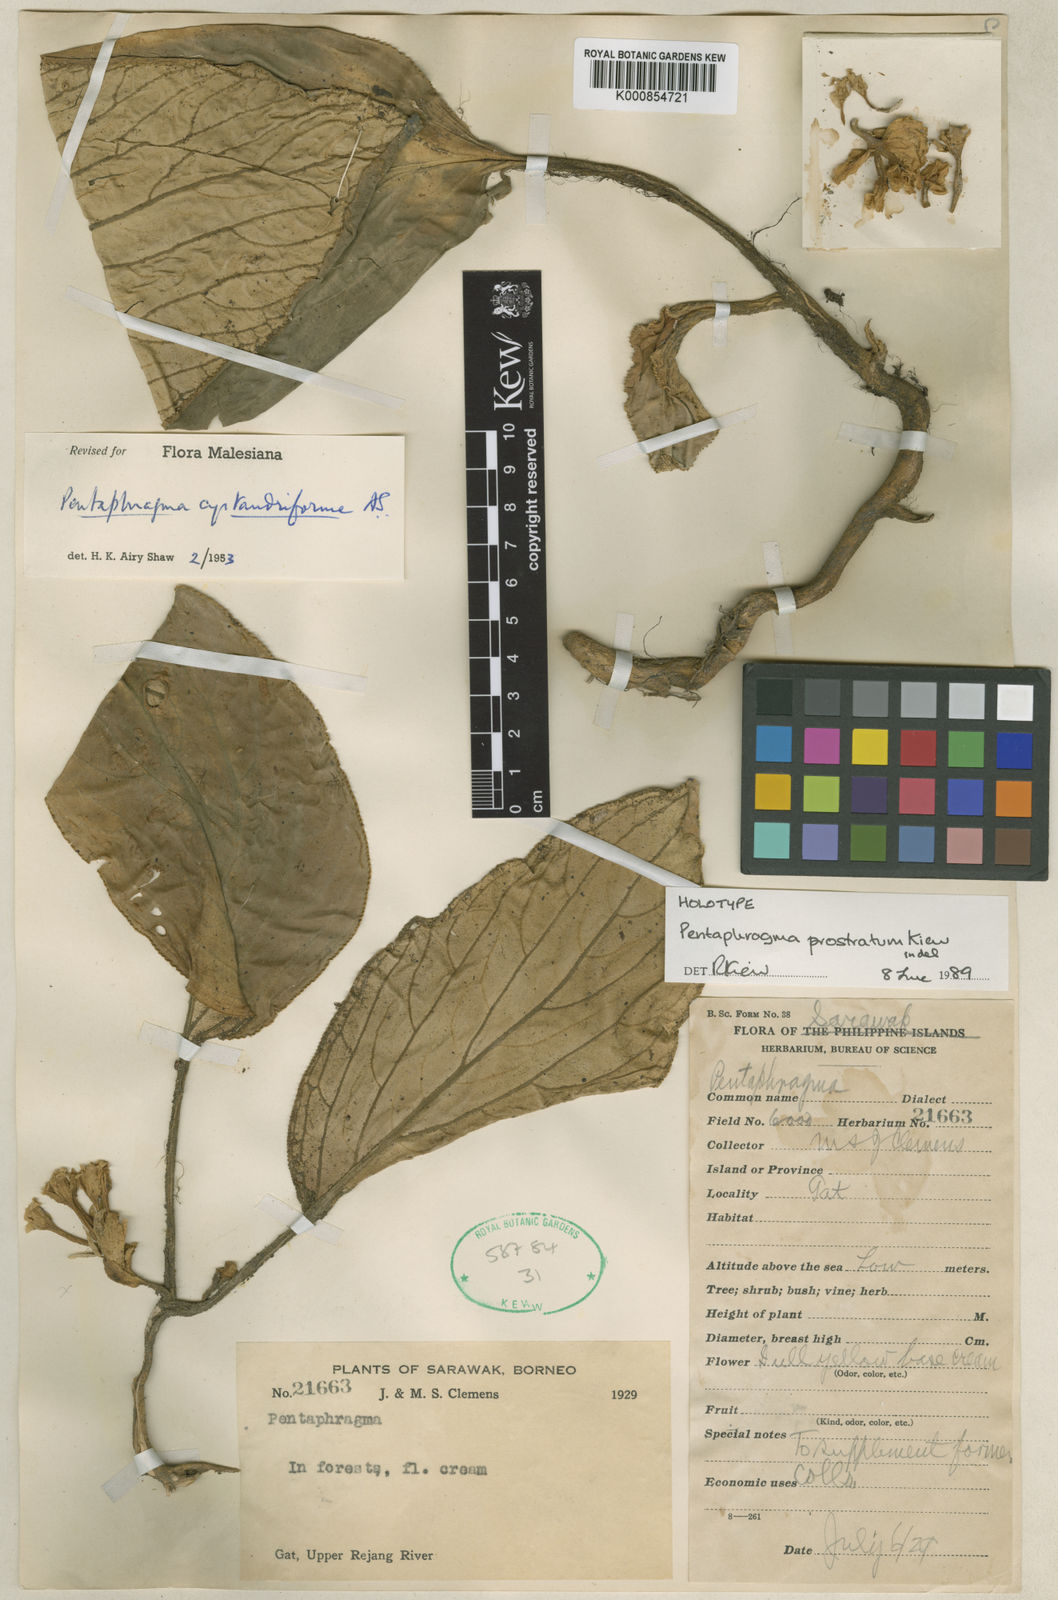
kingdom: Plantae
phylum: Tracheophyta
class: Magnoliopsida
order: Asterales
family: Pentaphragmataceae
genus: Pentaphragma
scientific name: Pentaphragma prostratum
